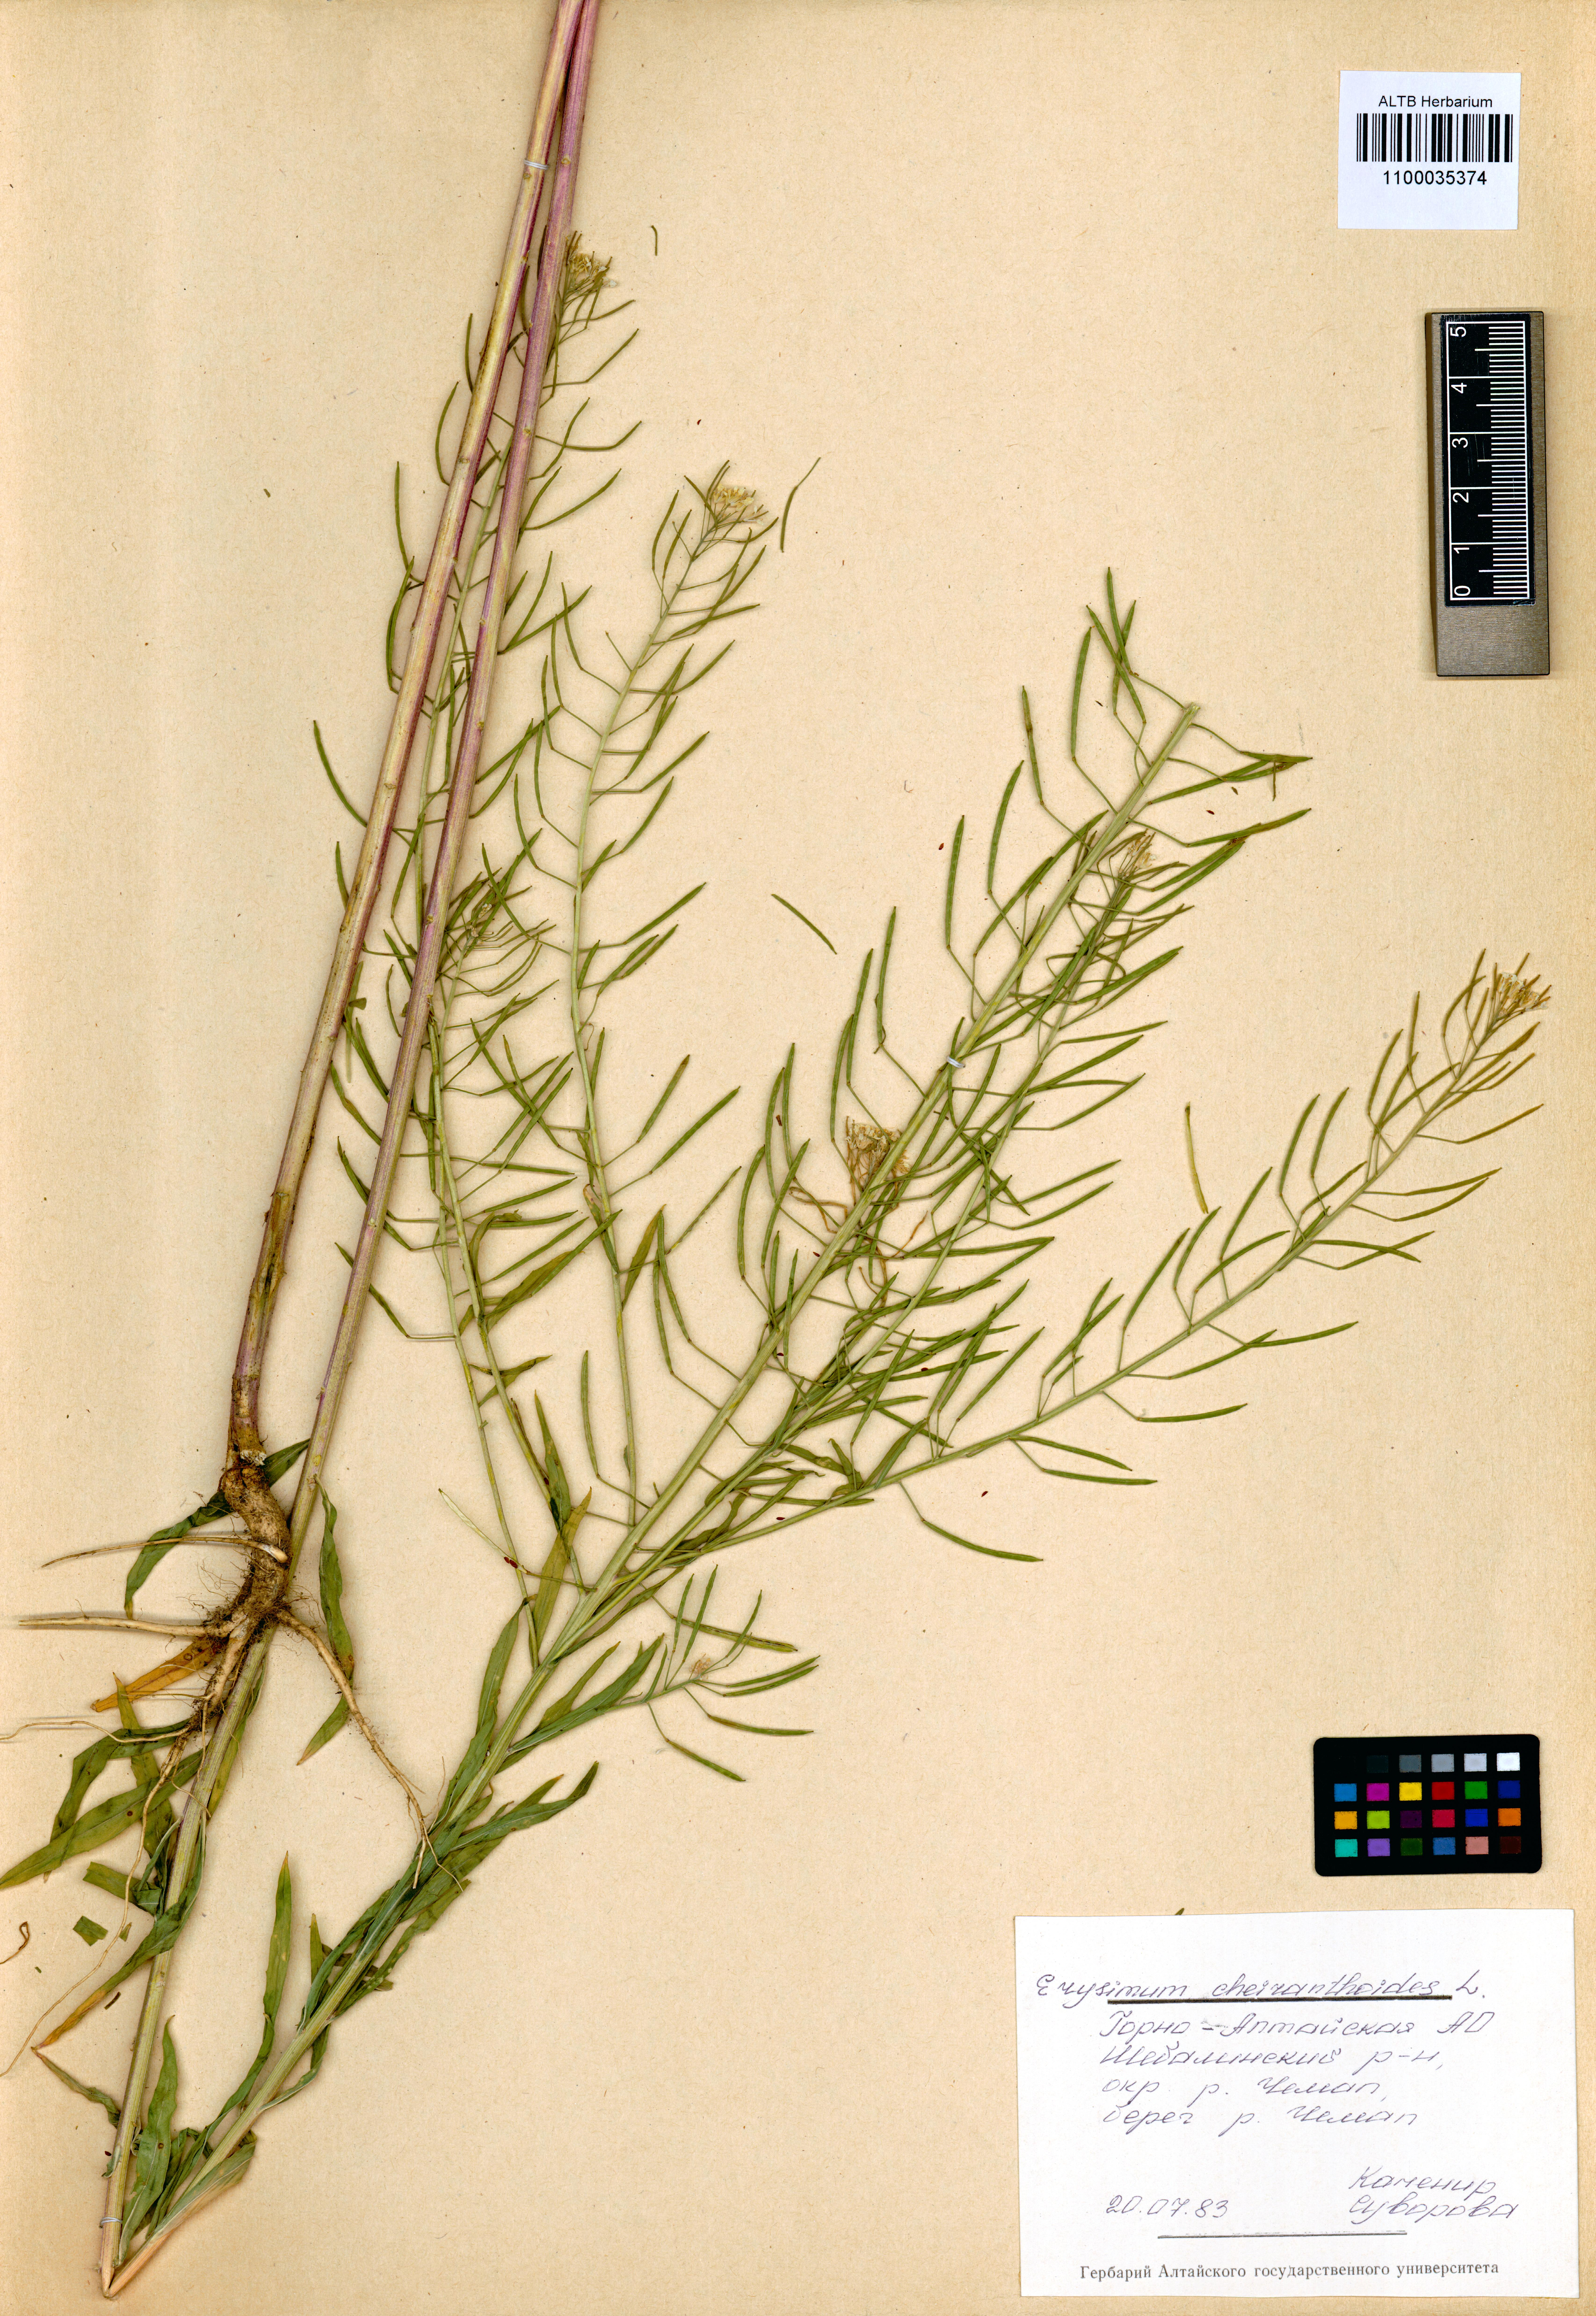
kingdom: Plantae
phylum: Tracheophyta
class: Magnoliopsida
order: Brassicales
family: Brassicaceae
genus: Erysimum
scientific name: Erysimum cheiranthoides
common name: Treacle mustard
